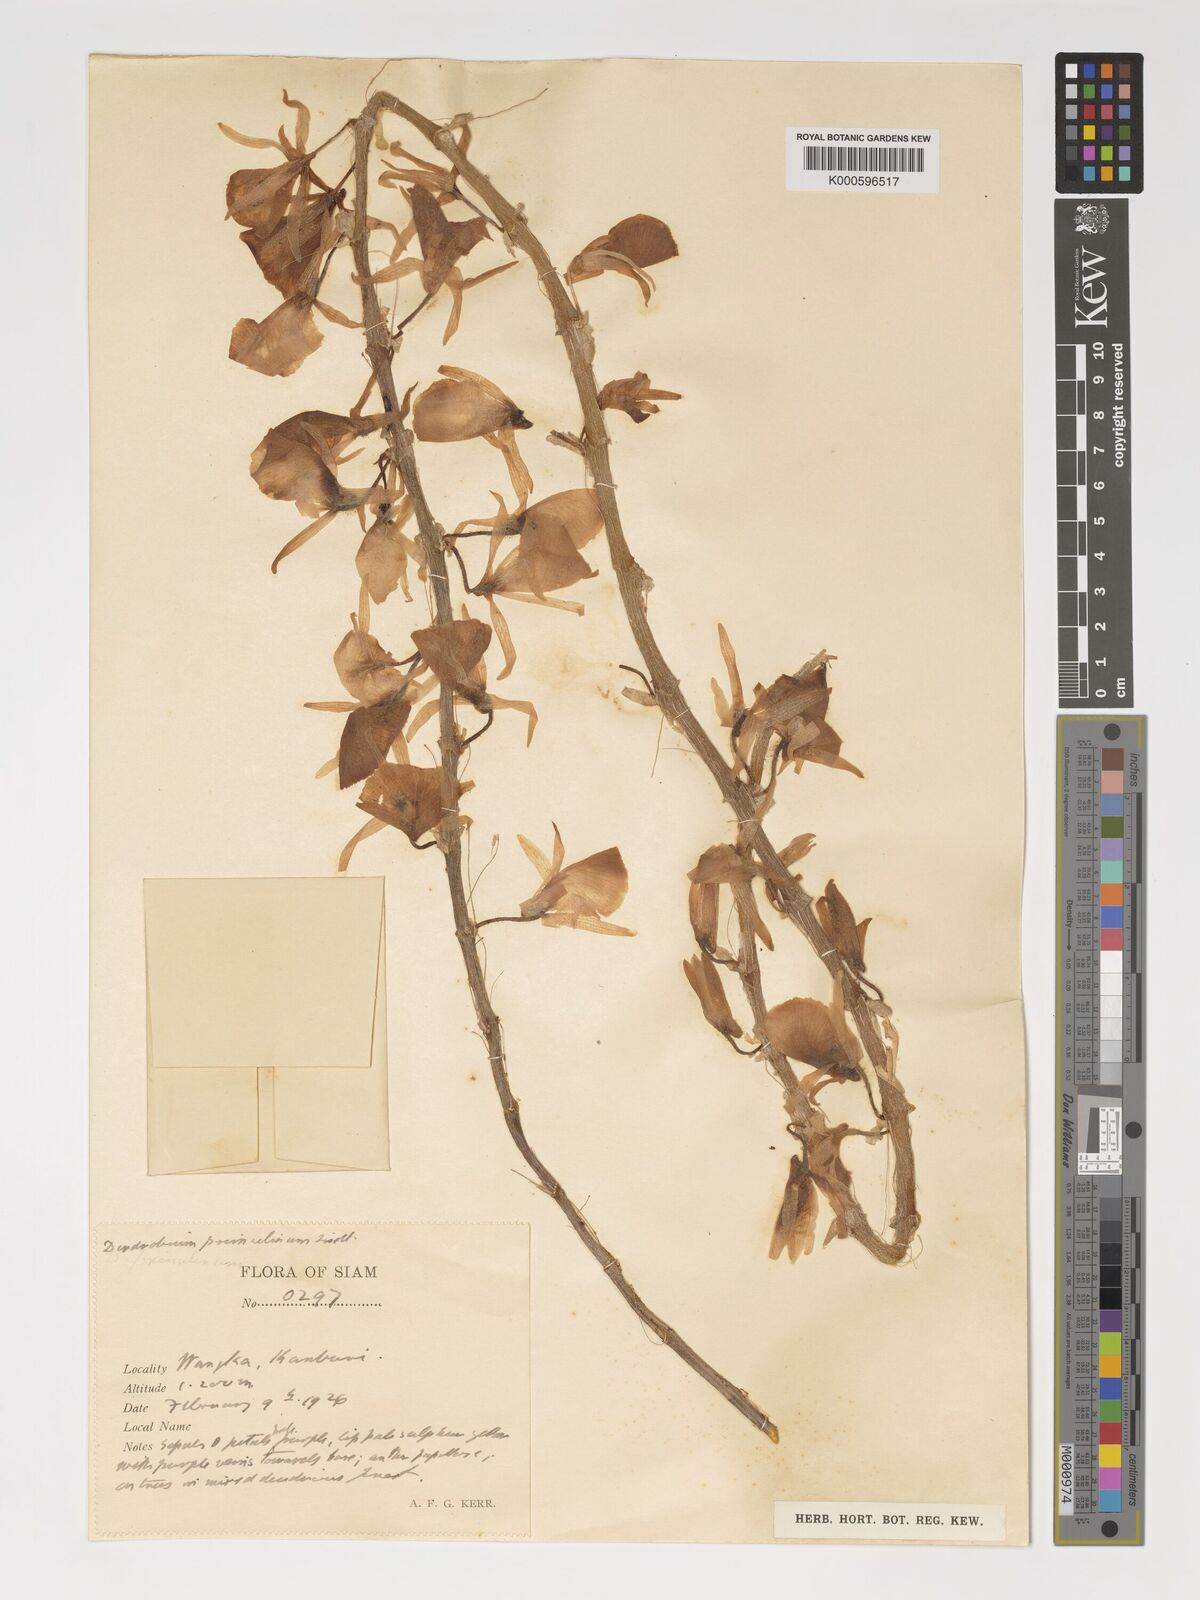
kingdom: Plantae
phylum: Tracheophyta
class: Liliopsida
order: Asparagales
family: Orchidaceae
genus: Dendrobium
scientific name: Dendrobium polyanthum
